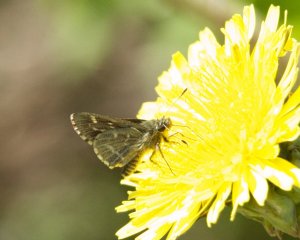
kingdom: Animalia
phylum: Arthropoda
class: Insecta
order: Lepidoptera
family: Hesperiidae
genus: Mastor
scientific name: Mastor hegon
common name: Pepper and Salt Skipper
